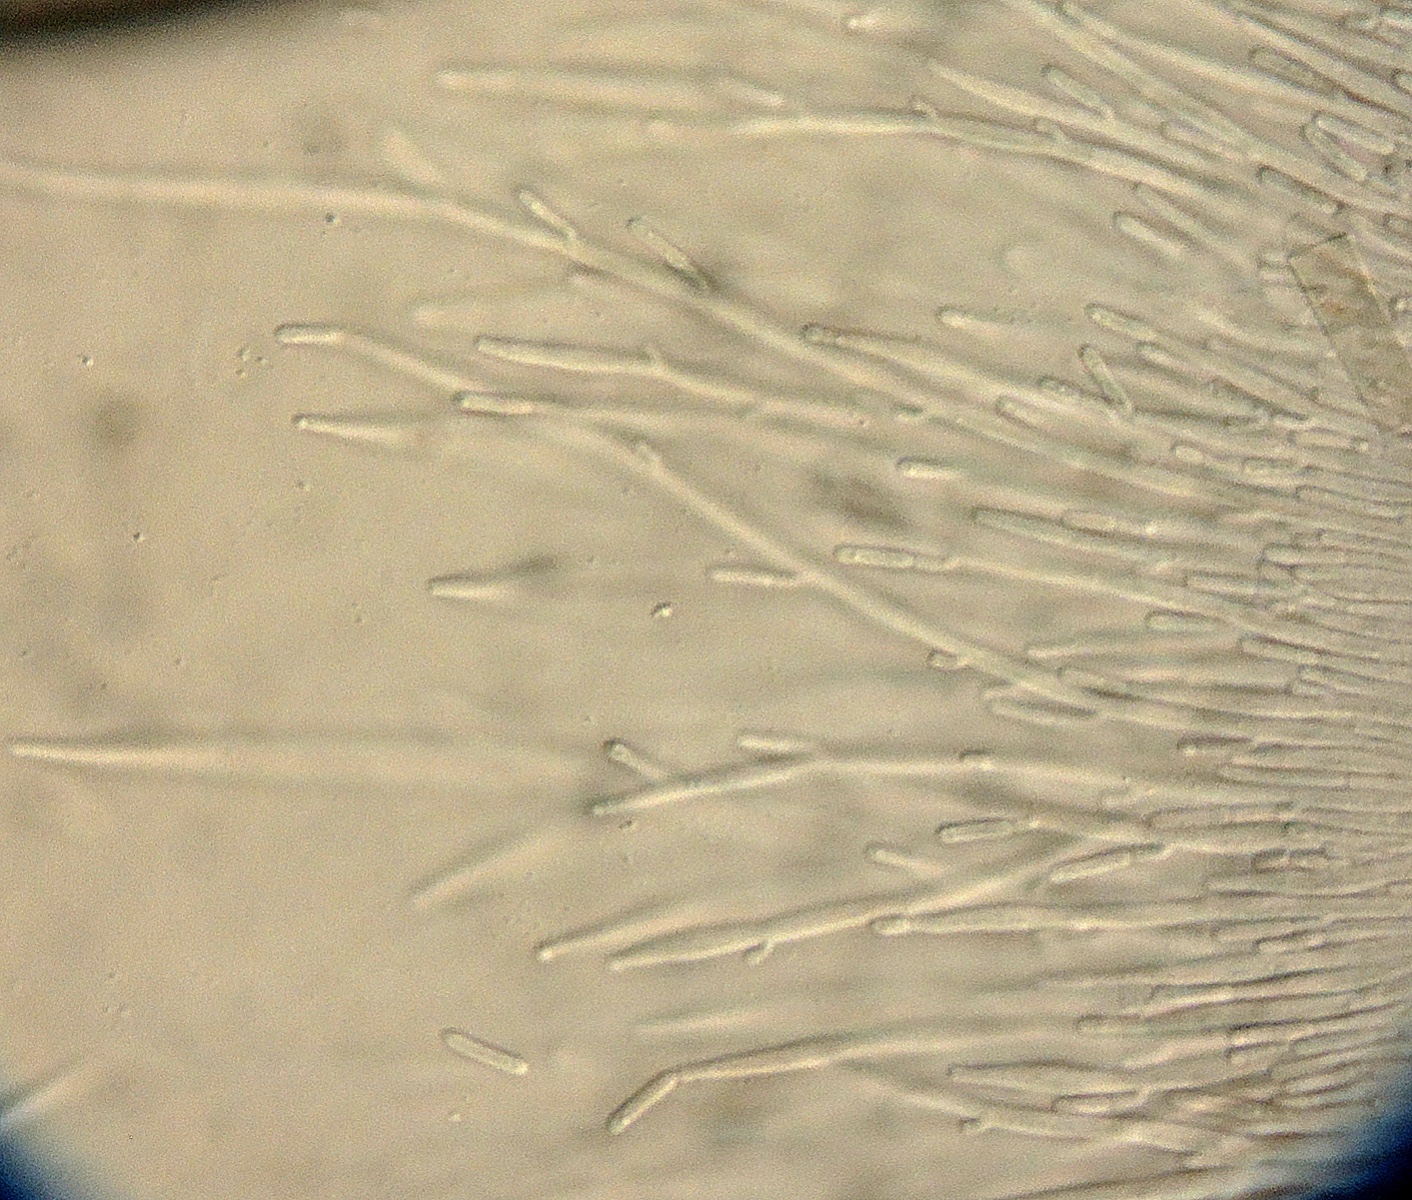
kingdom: Fungi
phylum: Ascomycota
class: Sordariomycetes
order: Hypocreales
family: Bionectriaceae
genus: Dendrodochium
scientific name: Dendrodochium pinastri
